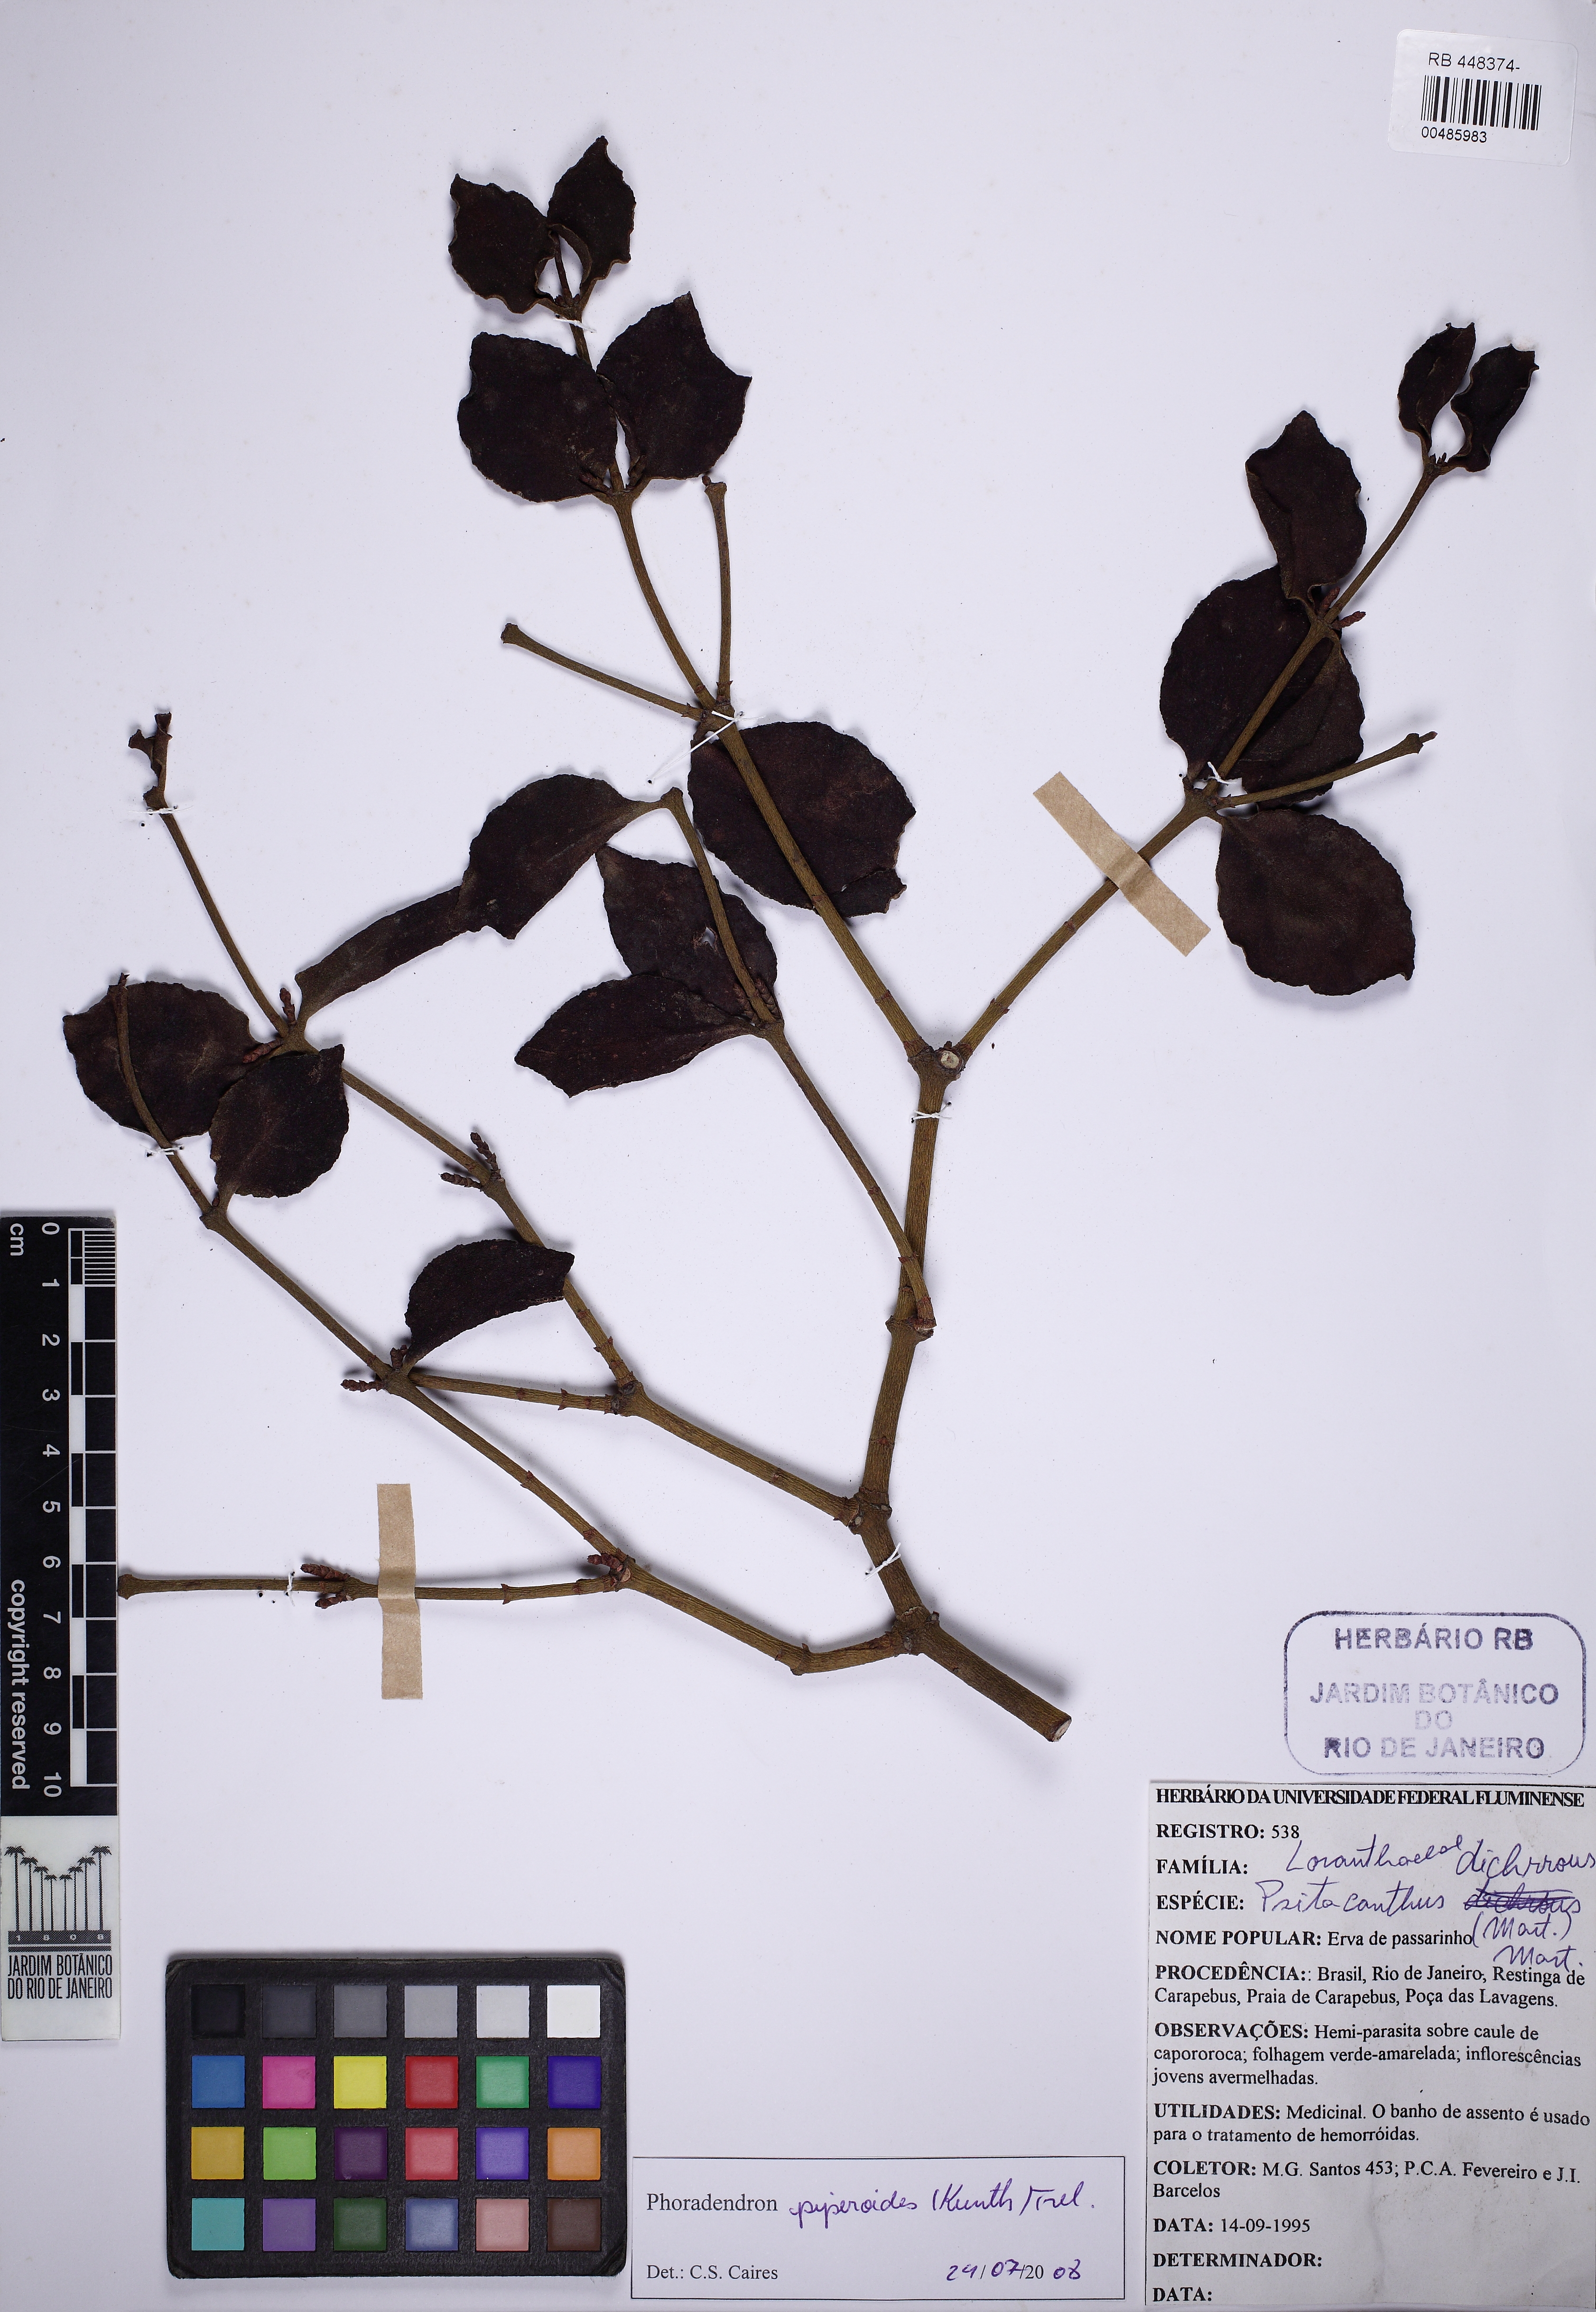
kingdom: Plantae
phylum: Tracheophyta
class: Magnoliopsida
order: Santalales
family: Viscaceae
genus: Phoradendron
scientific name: Phoradendron piperoides
